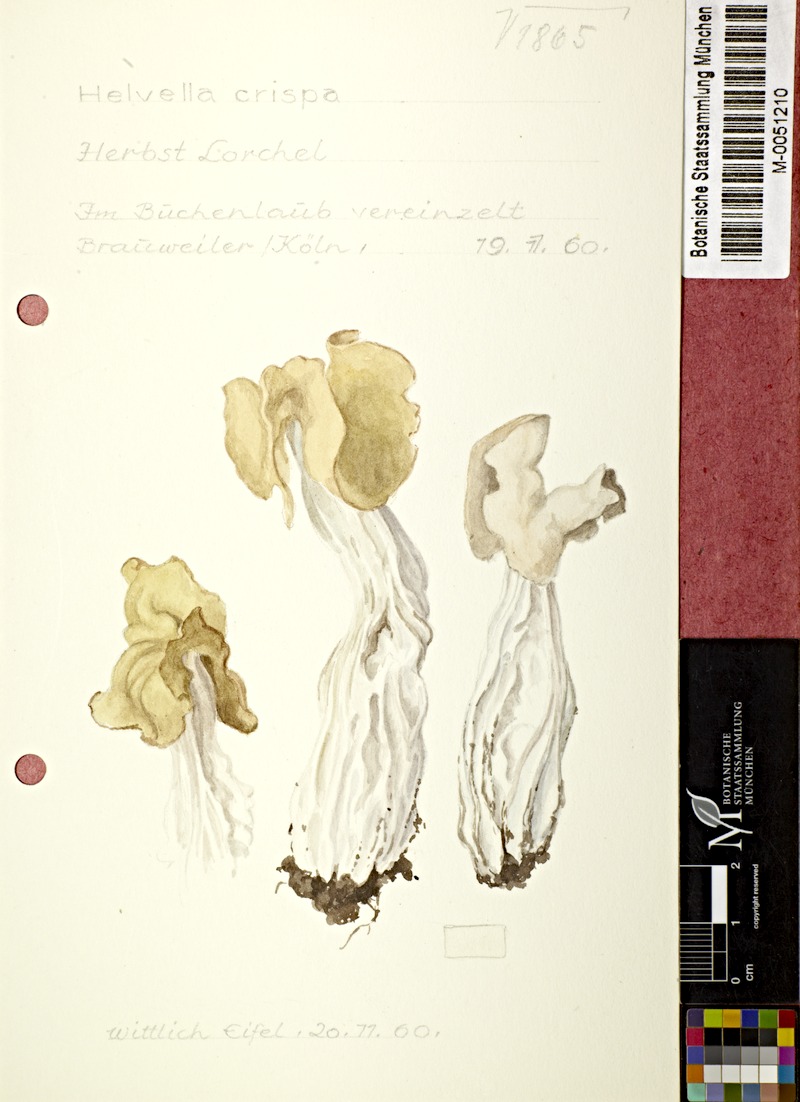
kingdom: Fungi
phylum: Ascomycota
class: Pezizomycetes
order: Pezizales
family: Helvellaceae
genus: Helvella
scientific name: Helvella crispa
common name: White saddle
